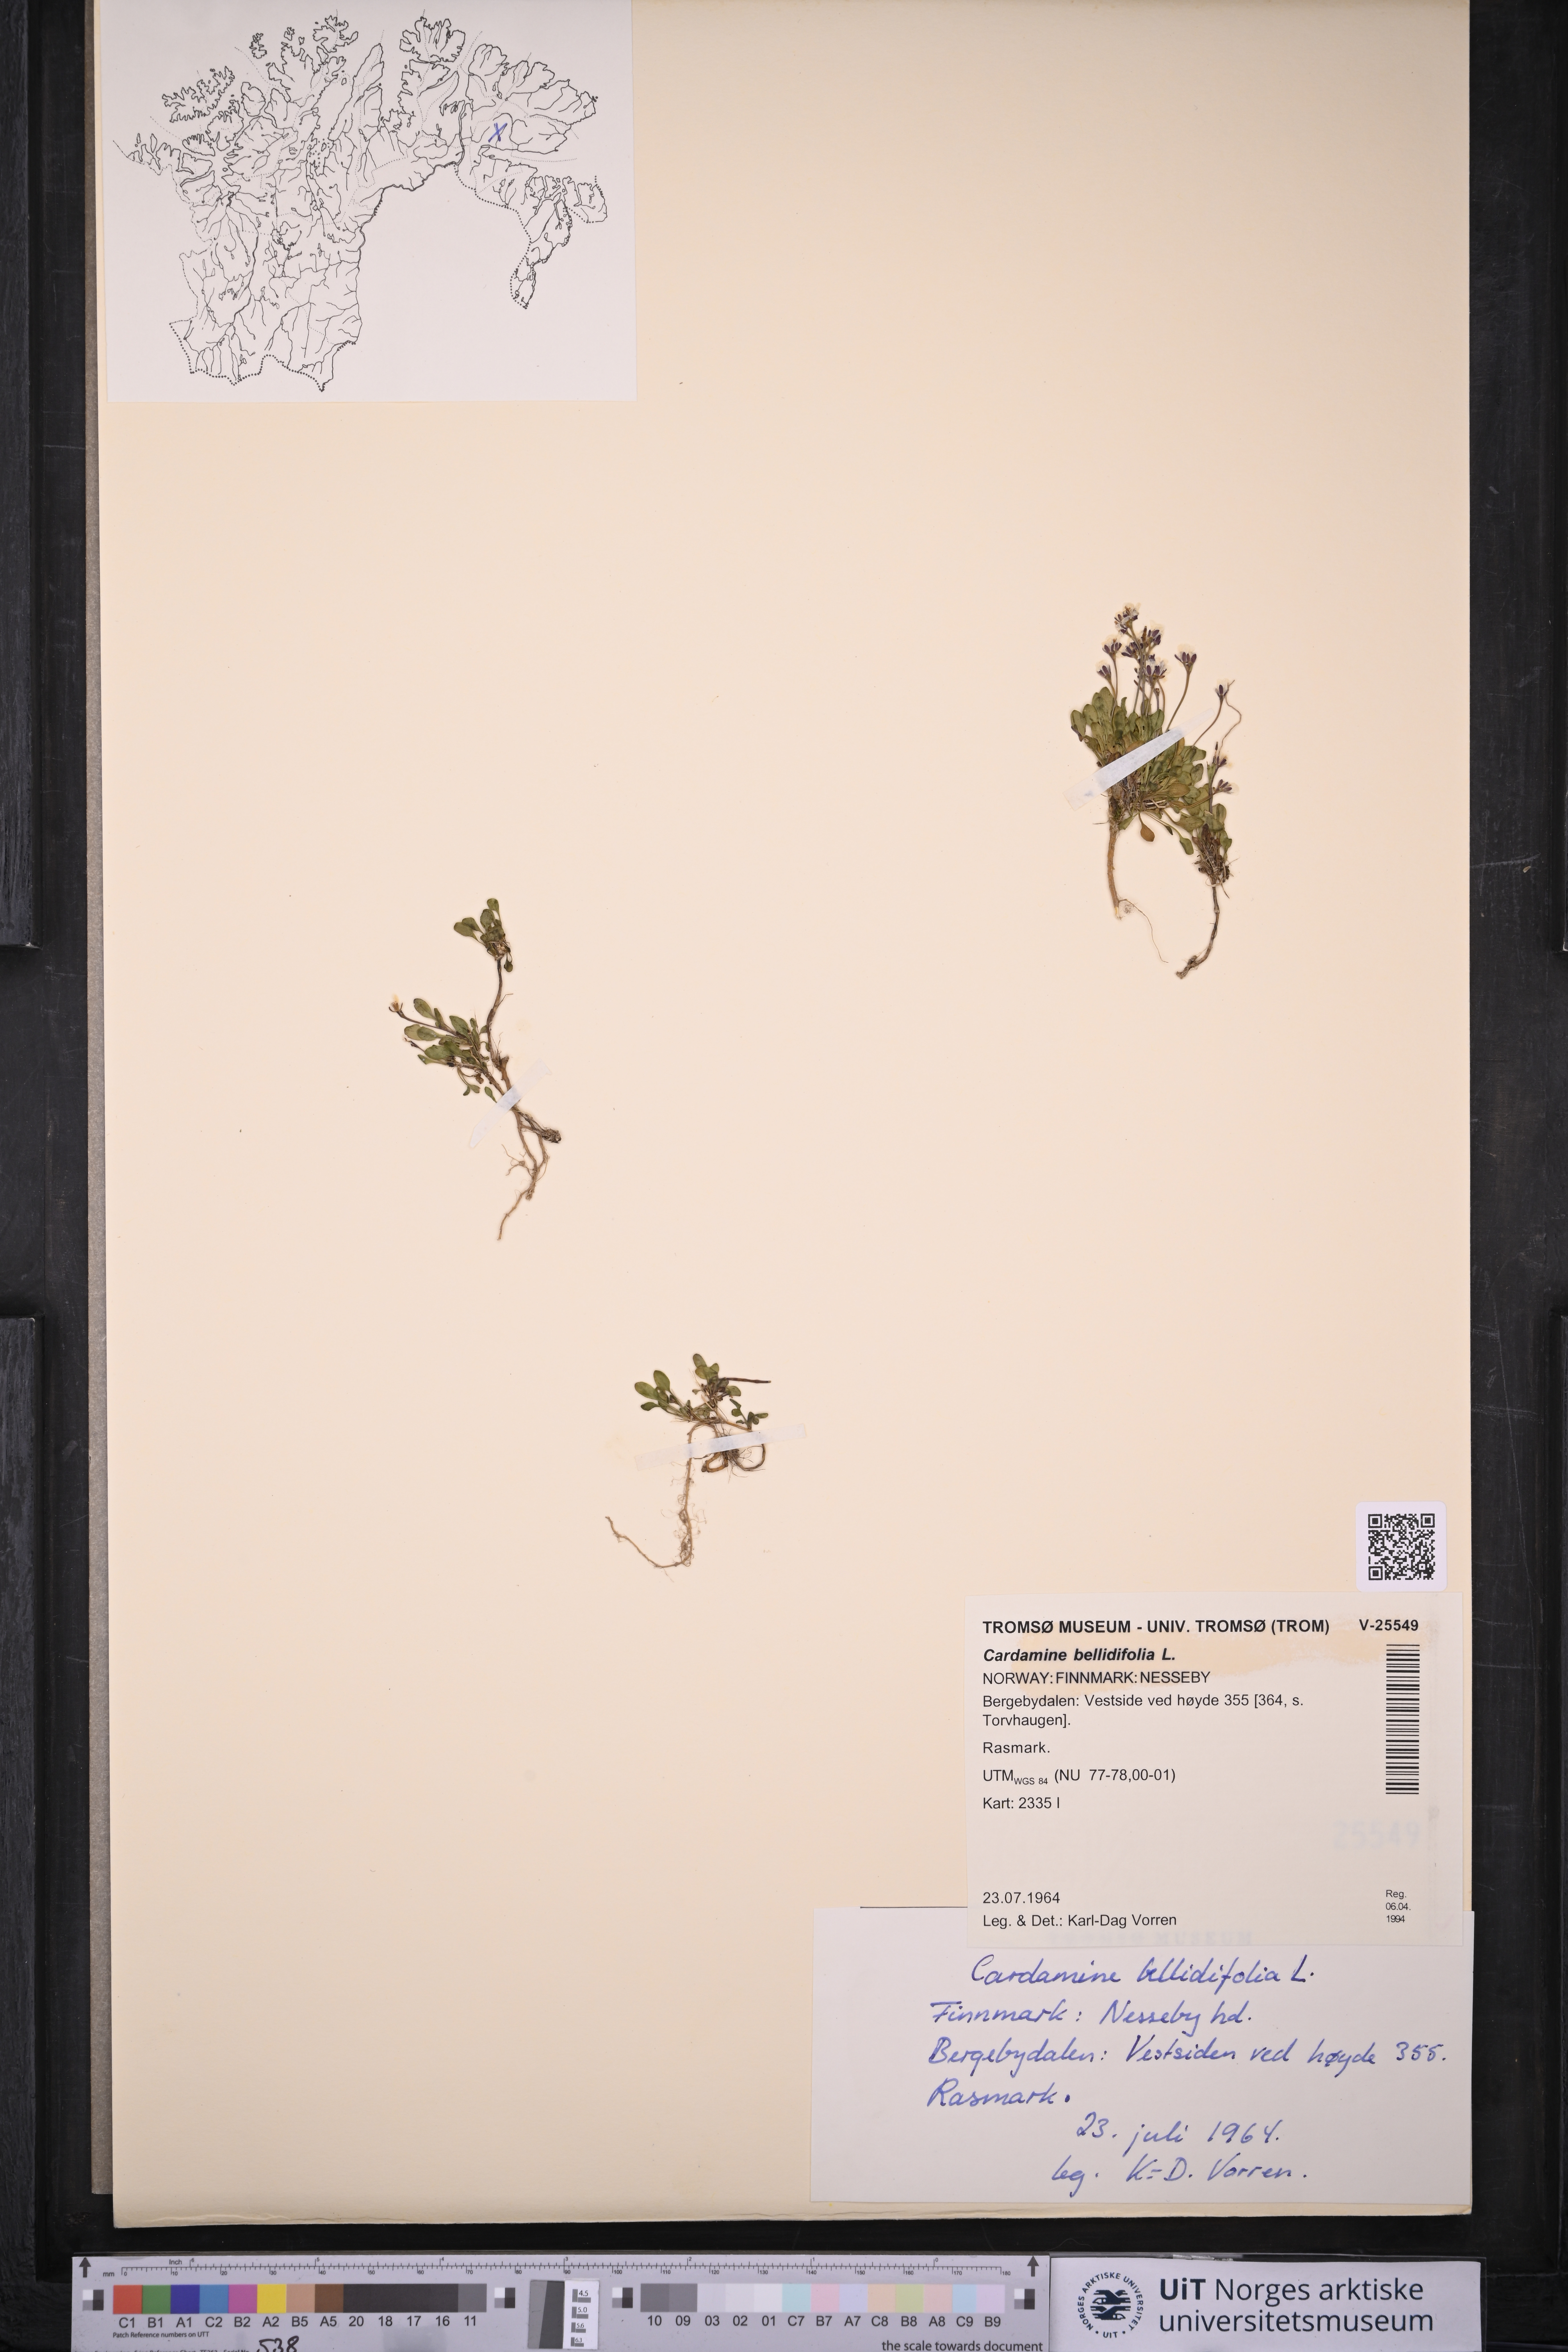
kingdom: Plantae
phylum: Tracheophyta
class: Magnoliopsida
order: Brassicales
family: Brassicaceae
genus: Cardamine
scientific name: Cardamine bellidifolia
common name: Alpine bittercress
